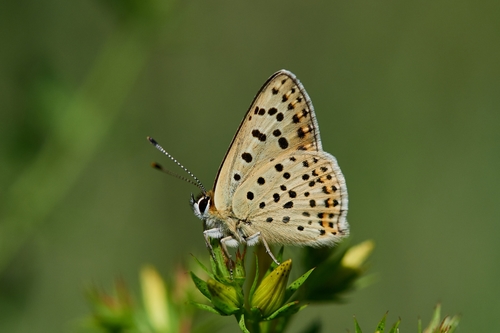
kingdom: Animalia
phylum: Arthropoda
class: Insecta
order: Lepidoptera
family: Lycaenidae
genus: Loweia
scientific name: Loweia tityrus
